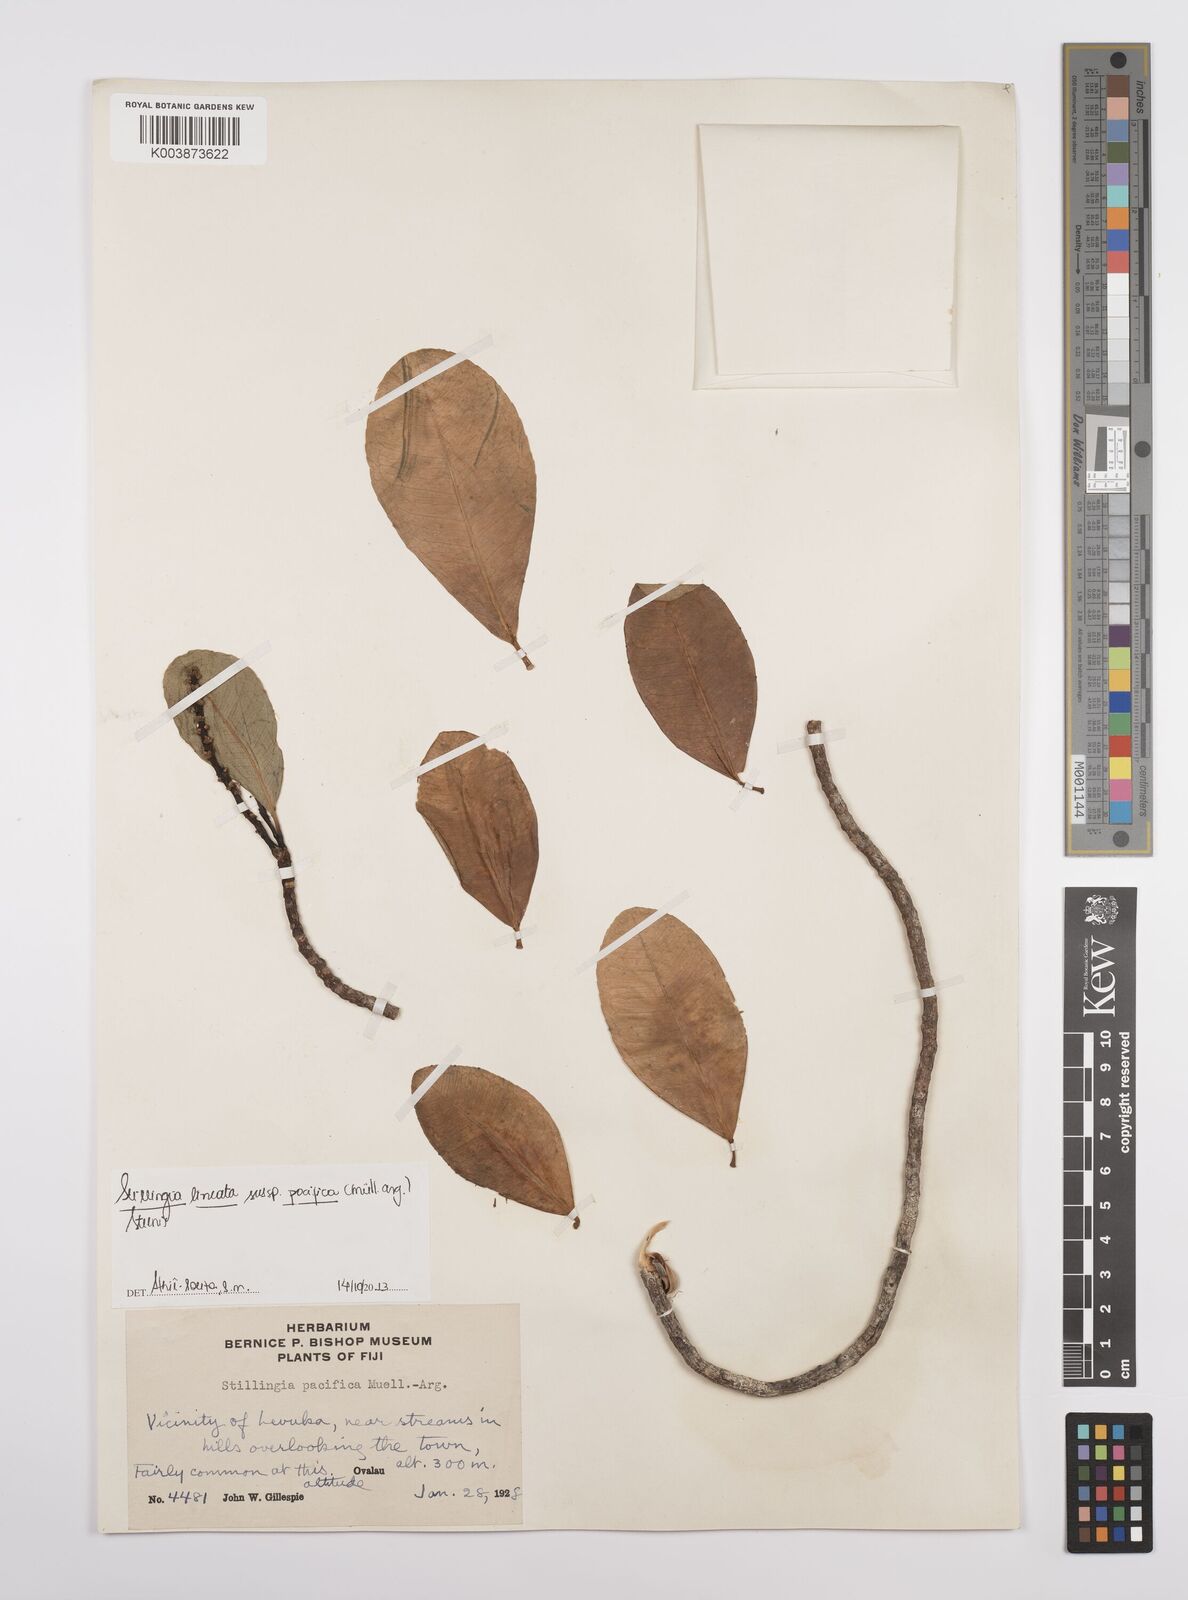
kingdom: Plantae
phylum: Tracheophyta
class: Magnoliopsida
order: Malpighiales
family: Euphorbiaceae
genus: Stillingia
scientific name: Stillingia lineata
